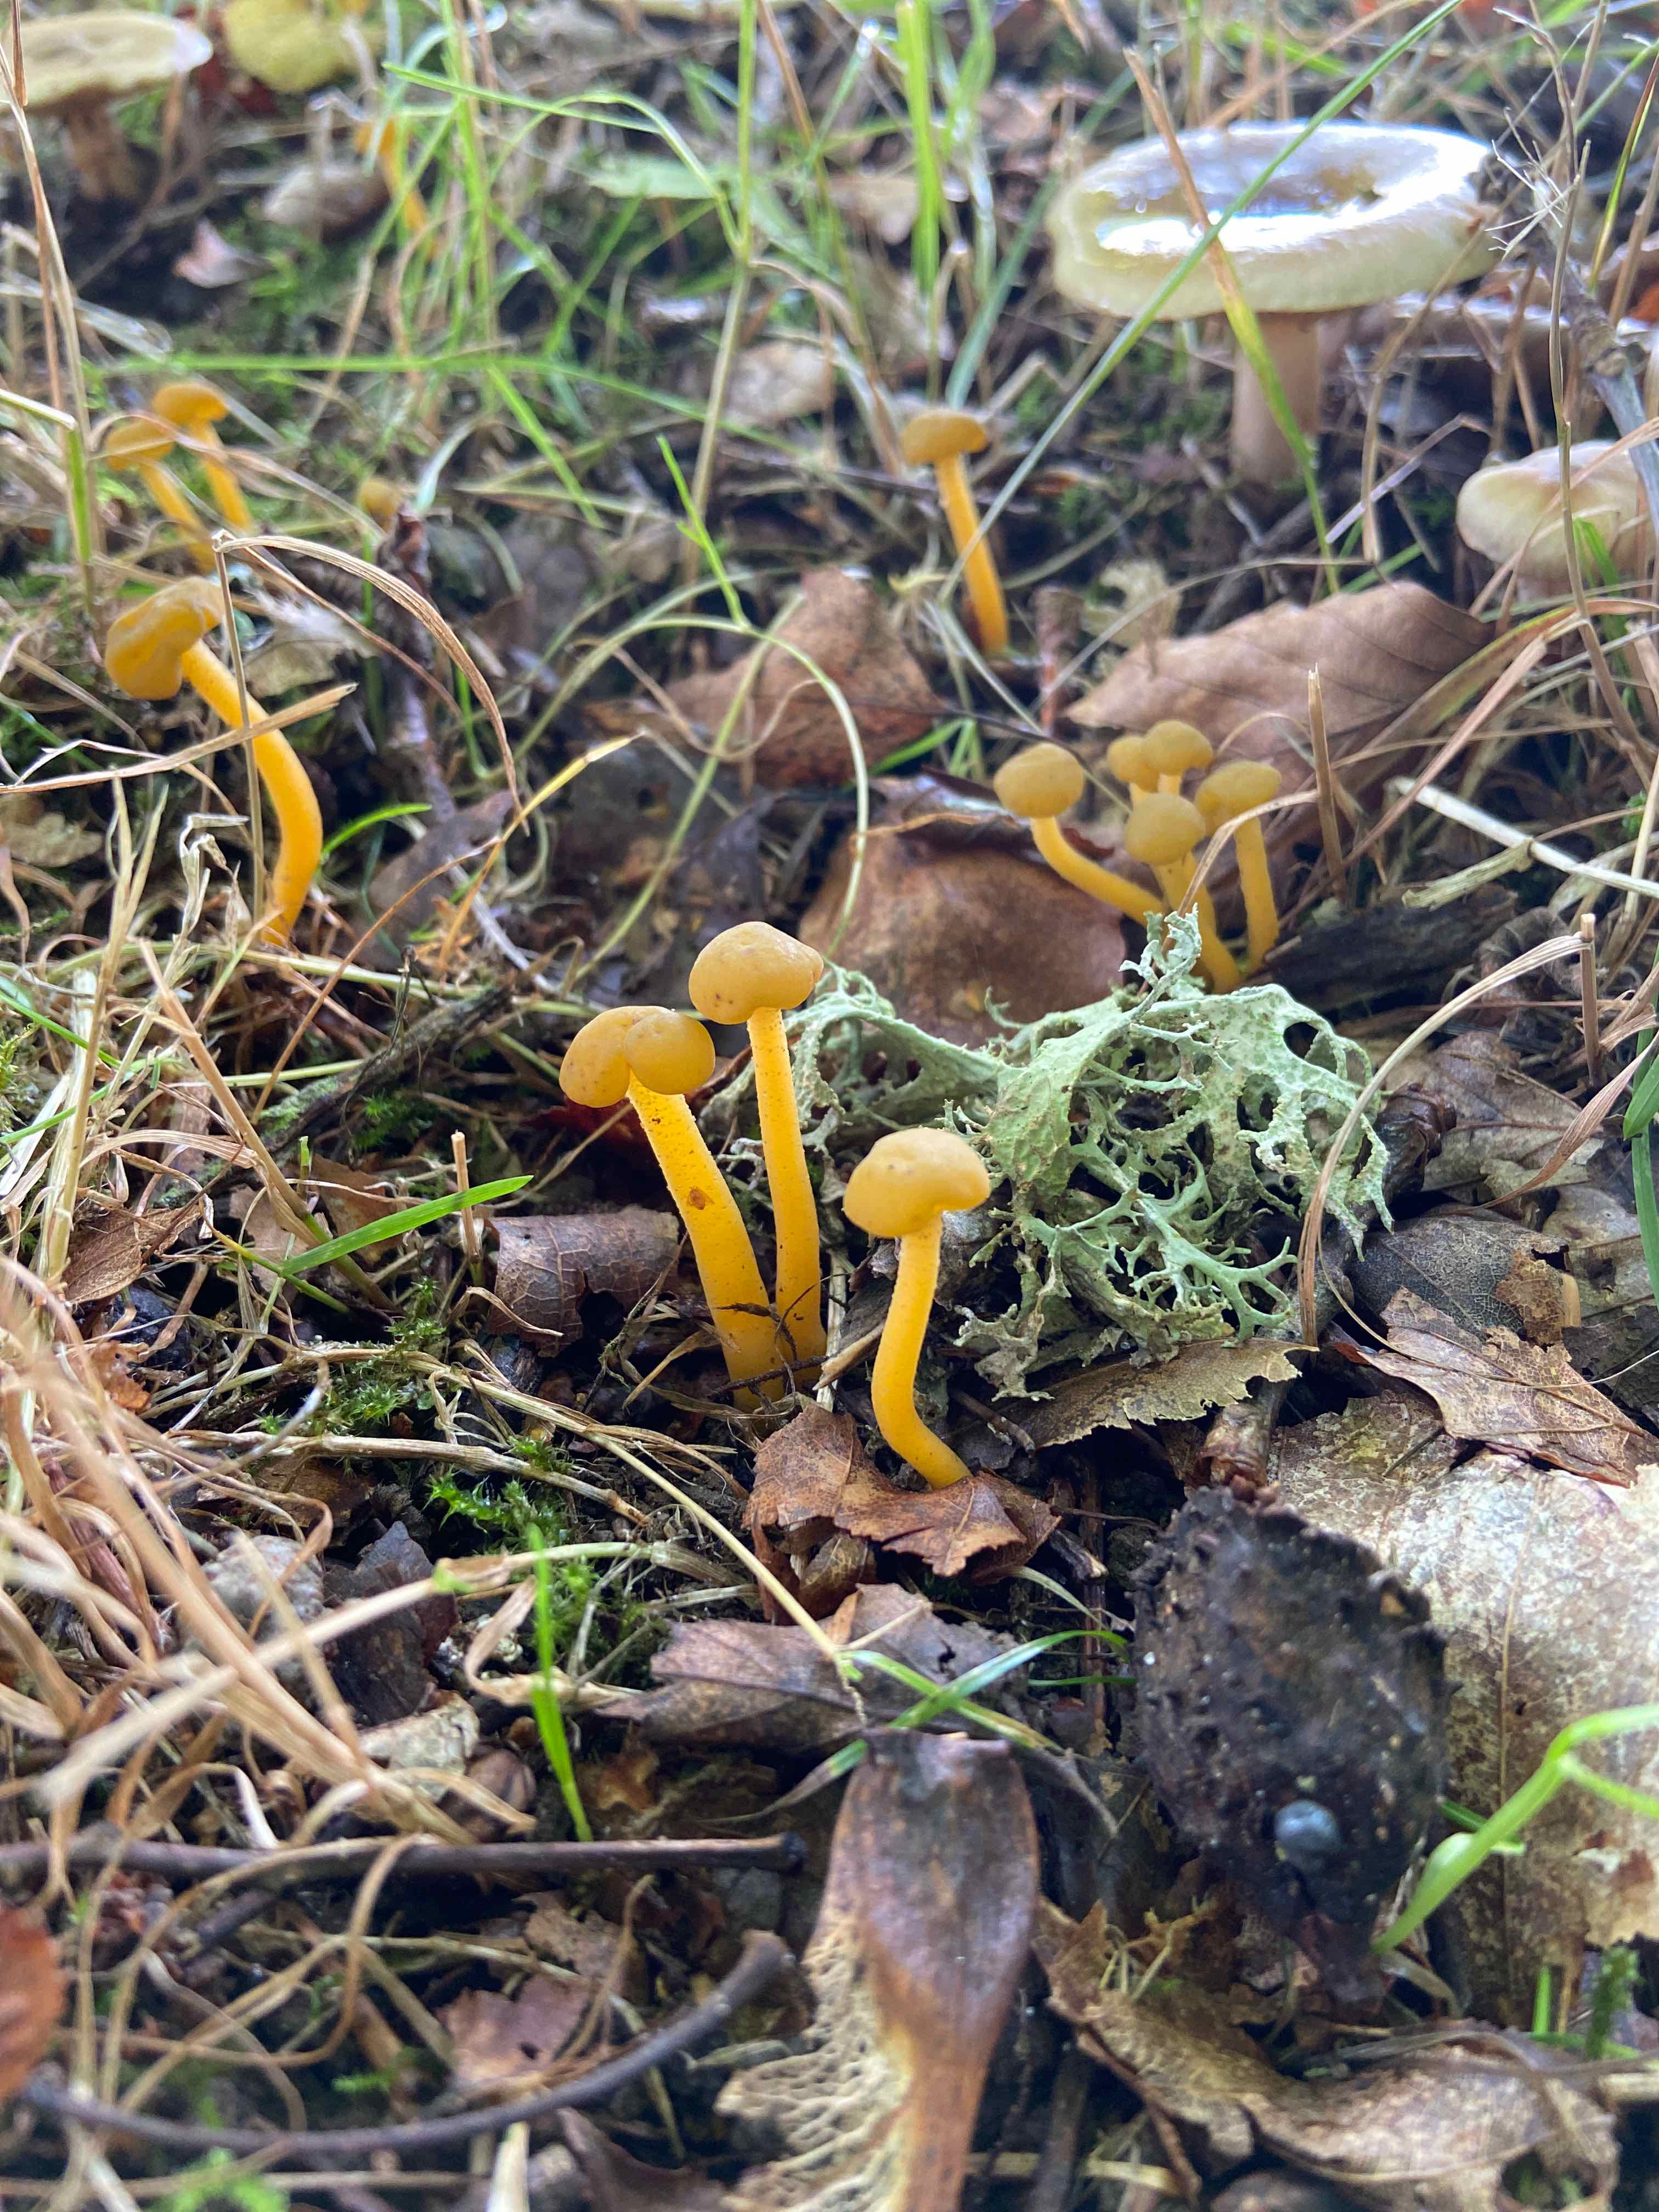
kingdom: Fungi
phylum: Ascomycota
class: Leotiomycetes
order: Leotiales
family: Leotiaceae
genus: Leotia
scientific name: Leotia lubrica
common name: ravsvamp
